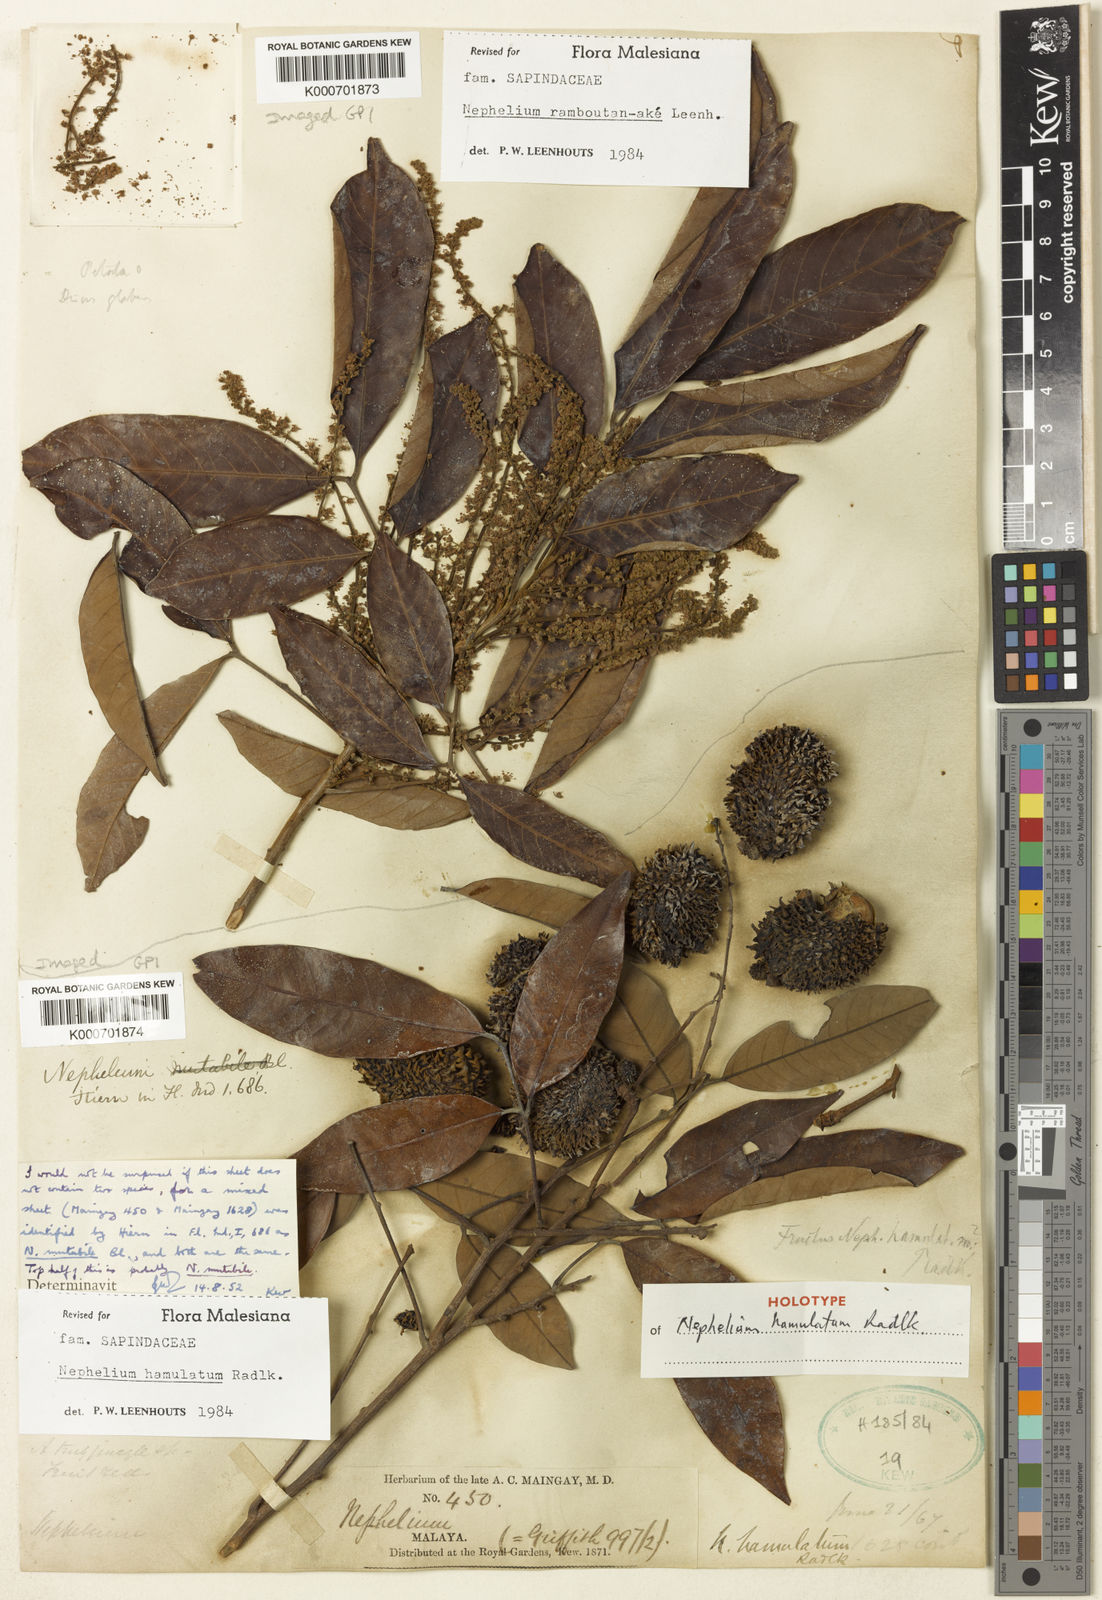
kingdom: Plantae
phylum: Tracheophyta
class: Magnoliopsida
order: Sapindales
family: Sapindaceae
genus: Nephelium
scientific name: Nephelium hamulatum
